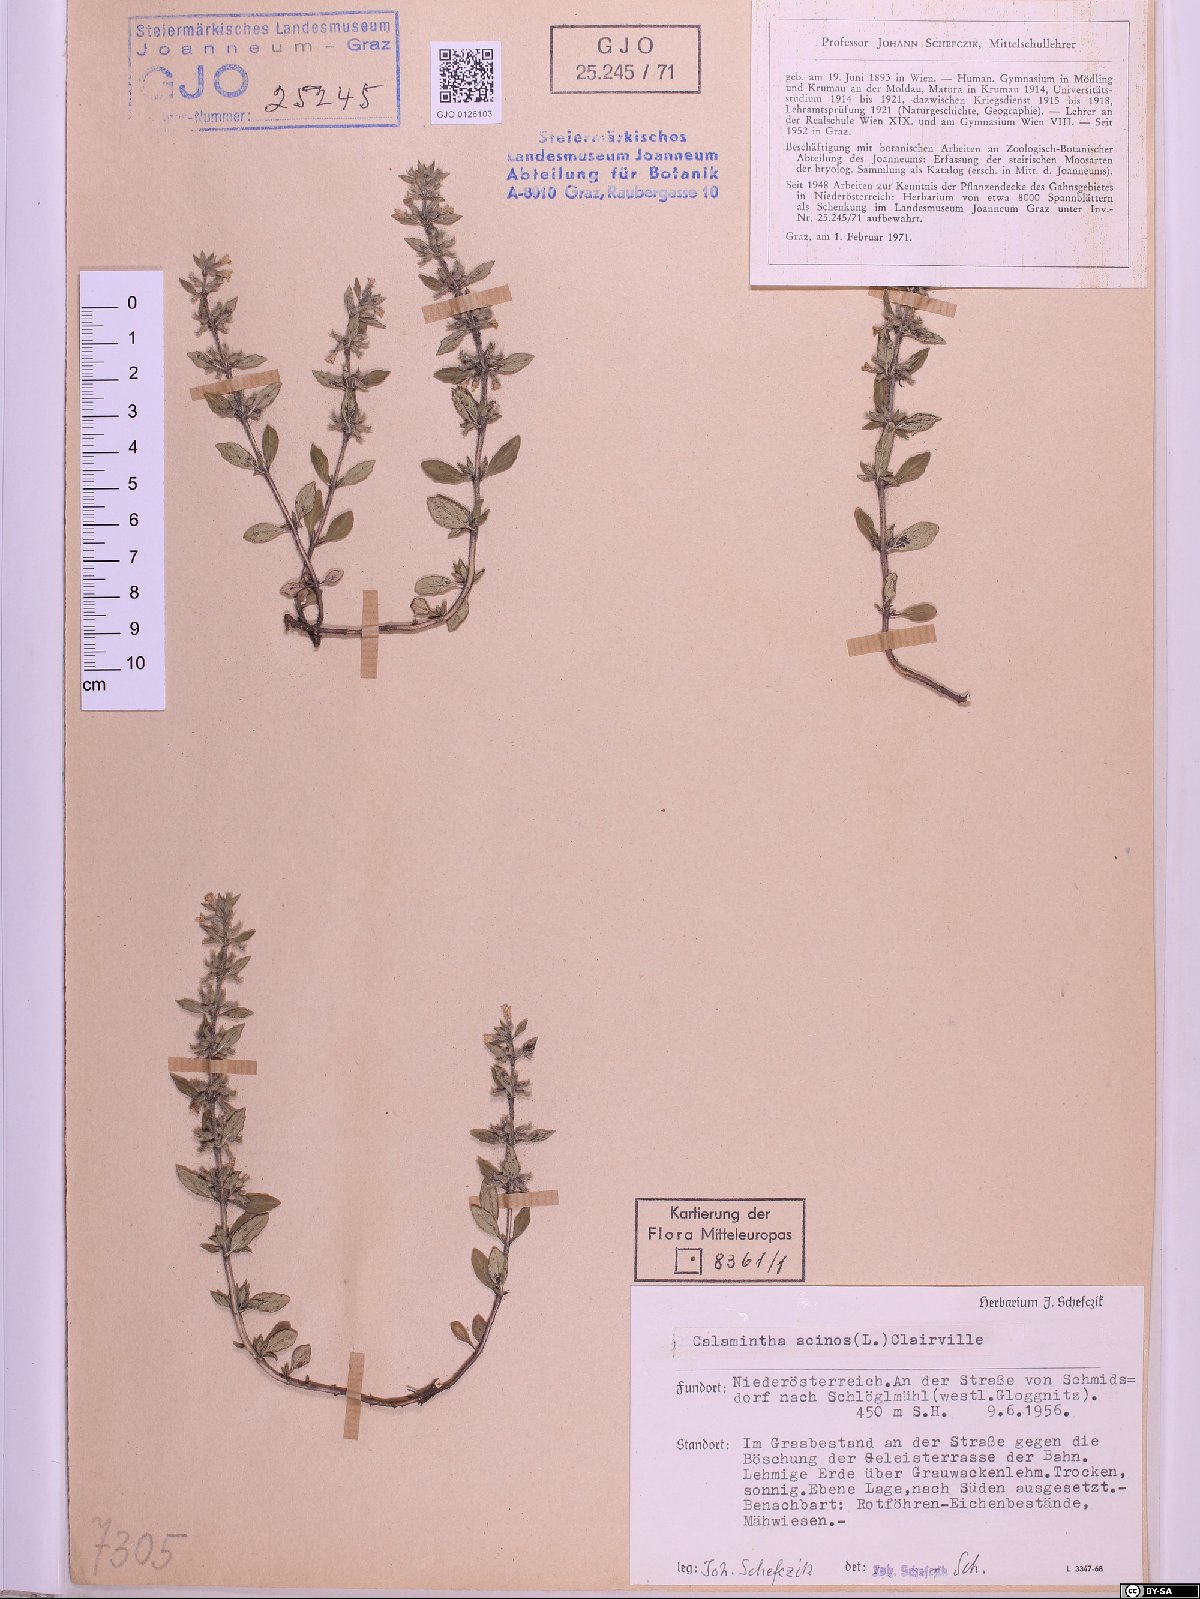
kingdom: Plantae
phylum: Tracheophyta
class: Magnoliopsida
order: Lamiales
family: Lamiaceae
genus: Clinopodium
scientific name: Clinopodium acinos
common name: Basil thyme
